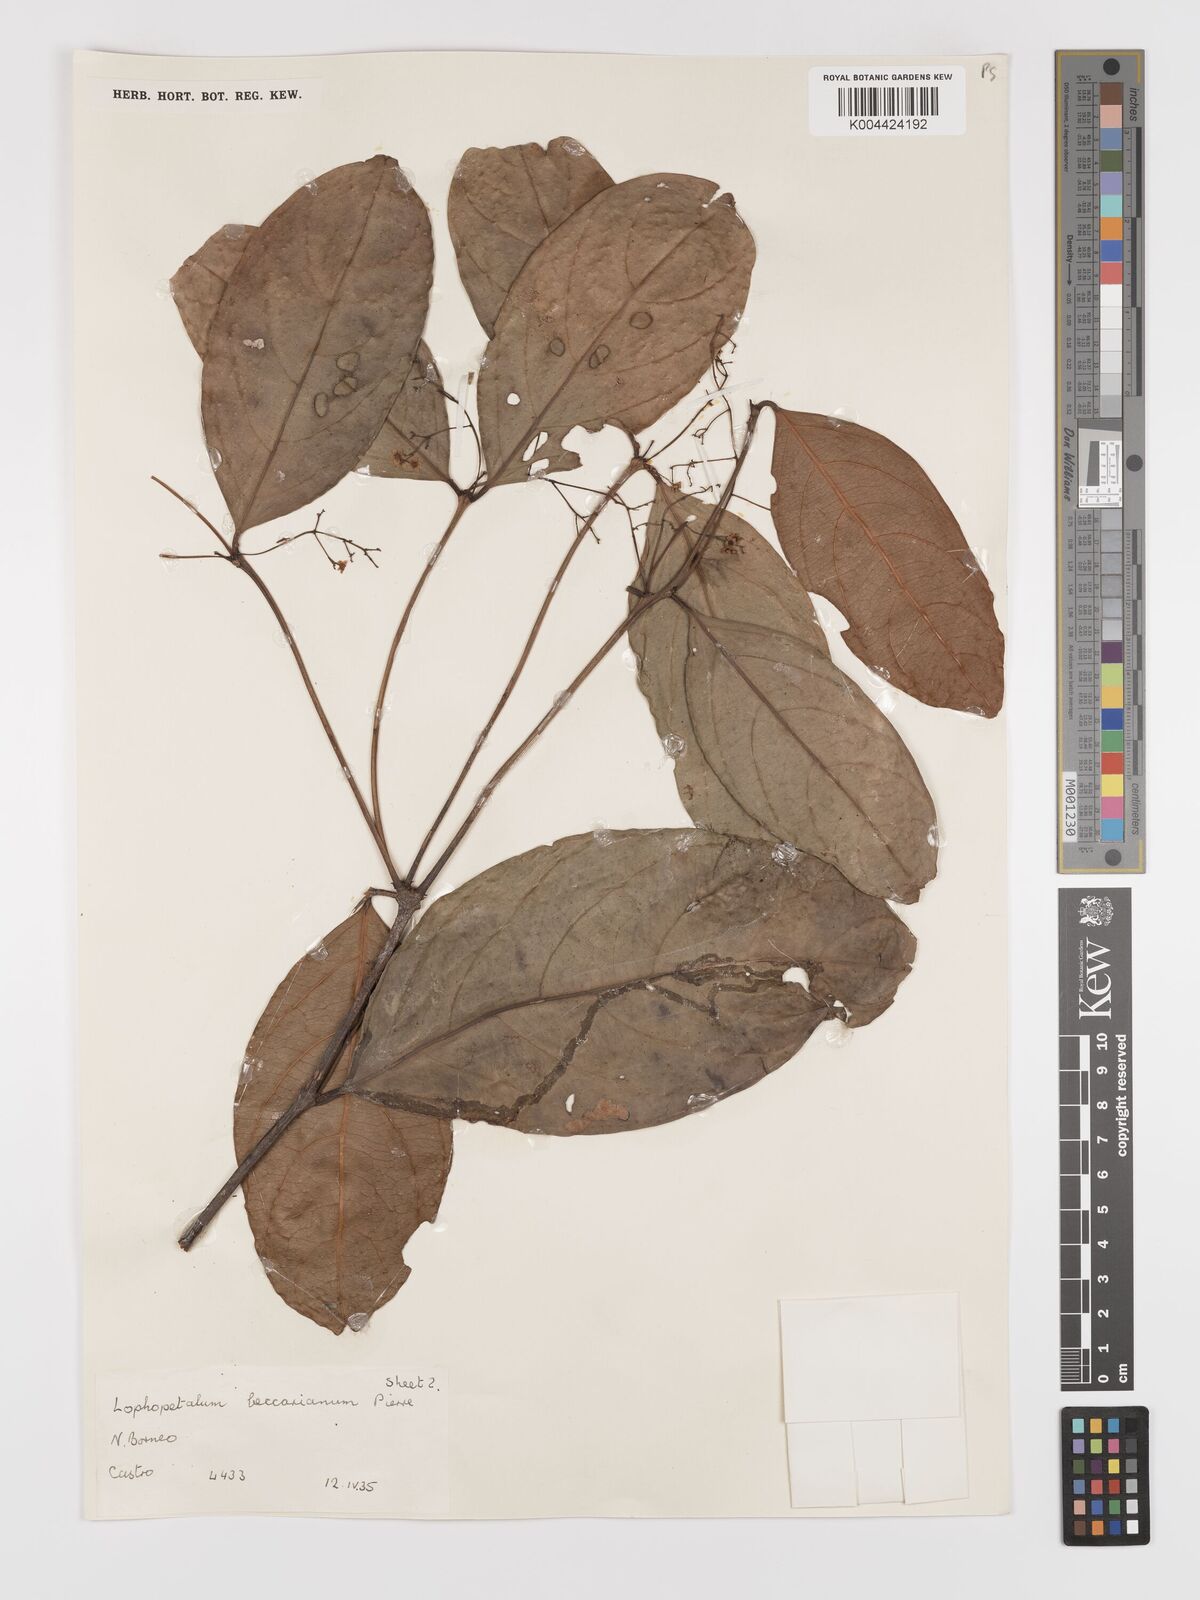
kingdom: Plantae
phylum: Tracheophyta
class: Magnoliopsida
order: Celastrales
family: Celastraceae
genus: Lophopetalum
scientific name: Lophopetalum beccarianum
